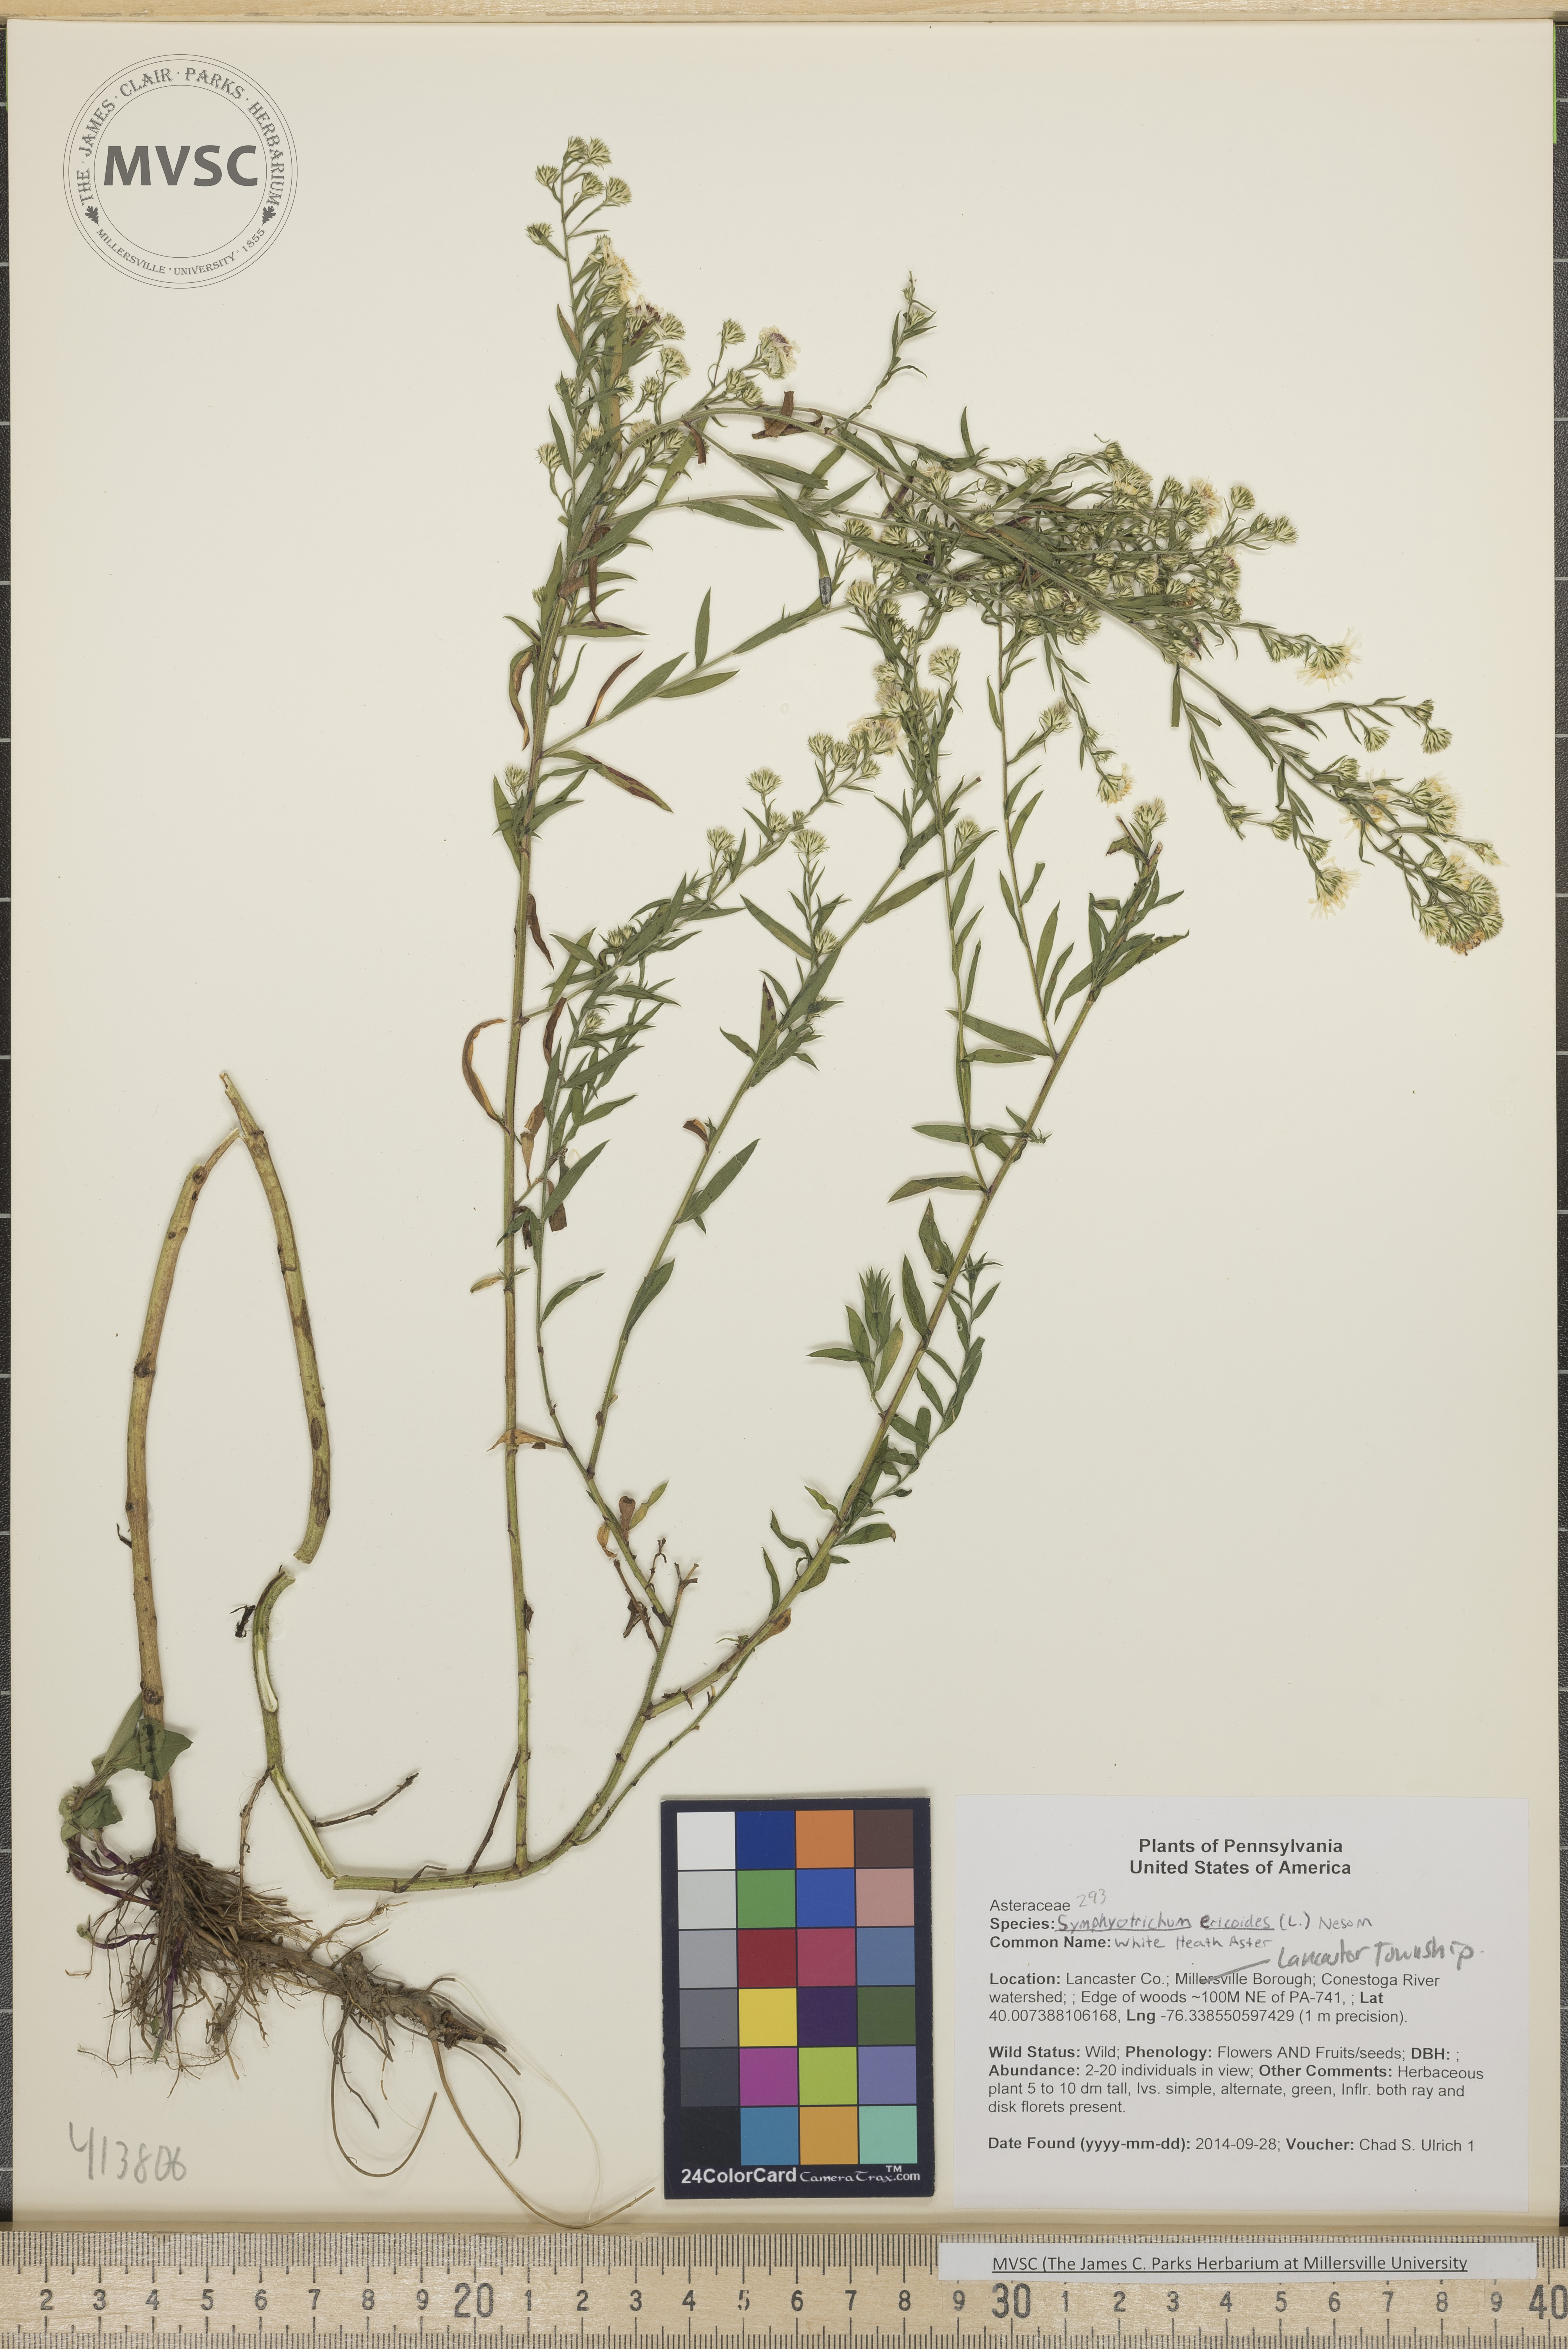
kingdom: Plantae
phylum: Tracheophyta
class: Magnoliopsida
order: Asterales
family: Asteraceae
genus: Symphyotrichum
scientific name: Symphyotrichum lanceolatum
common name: White Heath Aster
